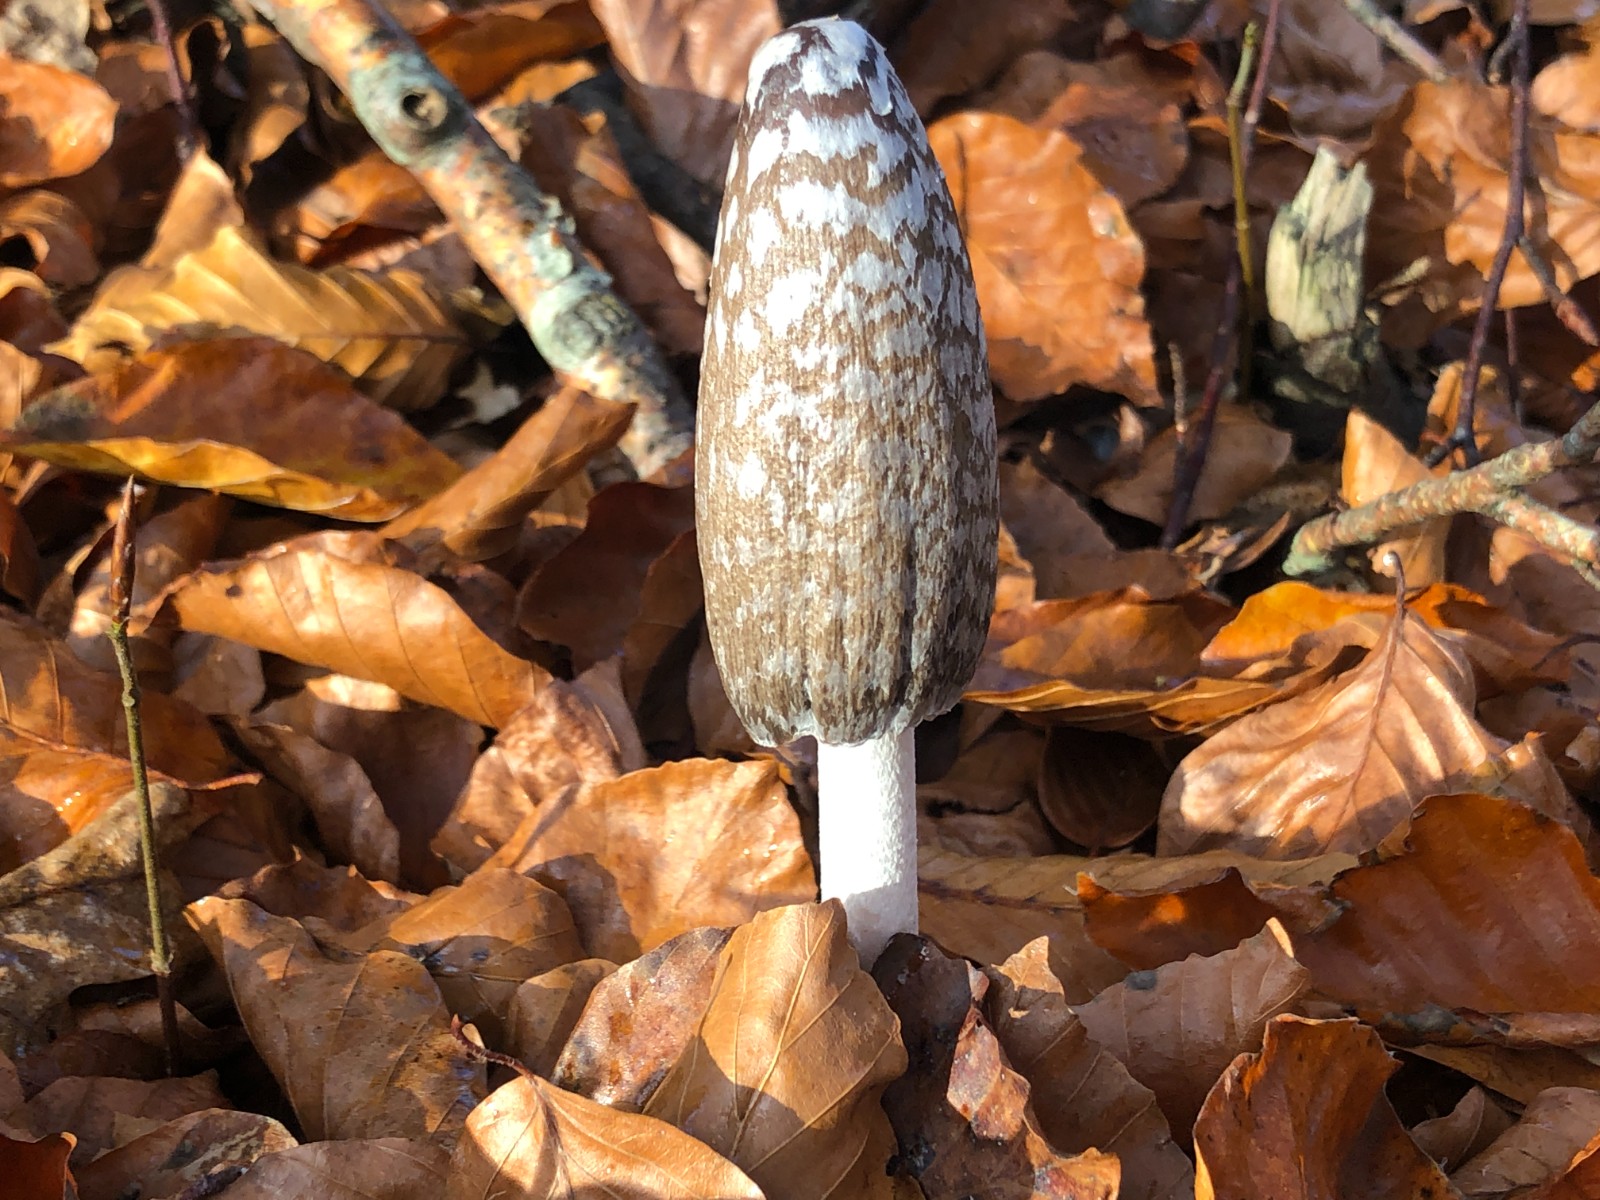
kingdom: Fungi
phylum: Basidiomycota
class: Agaricomycetes
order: Agaricales
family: Psathyrellaceae
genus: Coprinopsis
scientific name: Coprinopsis picacea
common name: skade-blækhat
